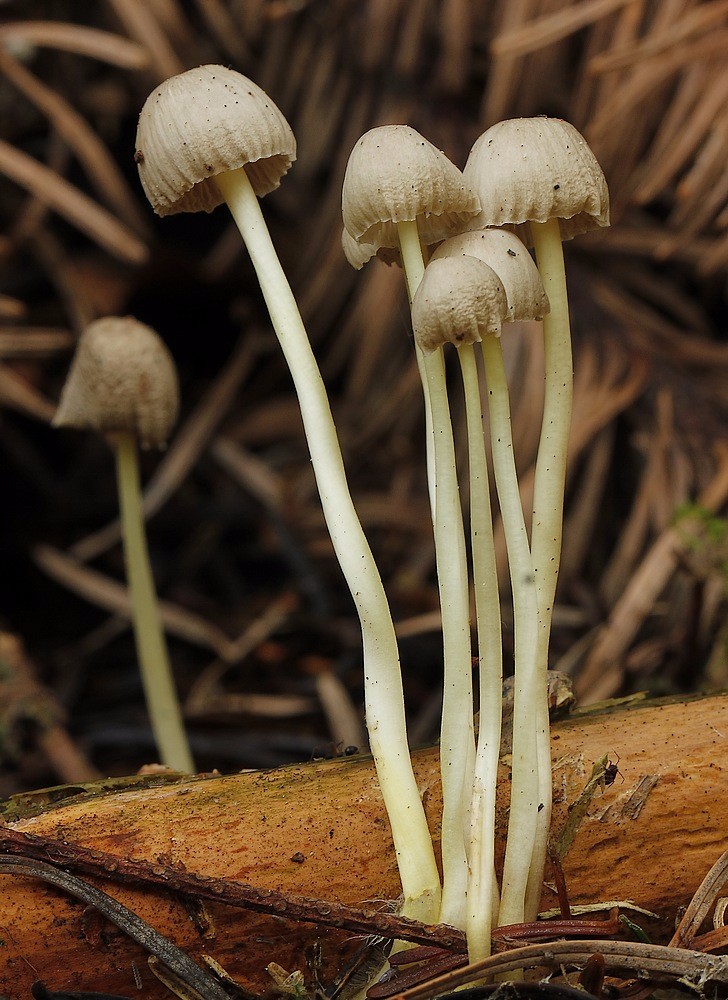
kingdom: Fungi
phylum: Basidiomycota
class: Agaricomycetes
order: Agaricales
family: Mycenaceae
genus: Mycena
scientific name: Mycena epipterygia
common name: gulstokket huesvamp
